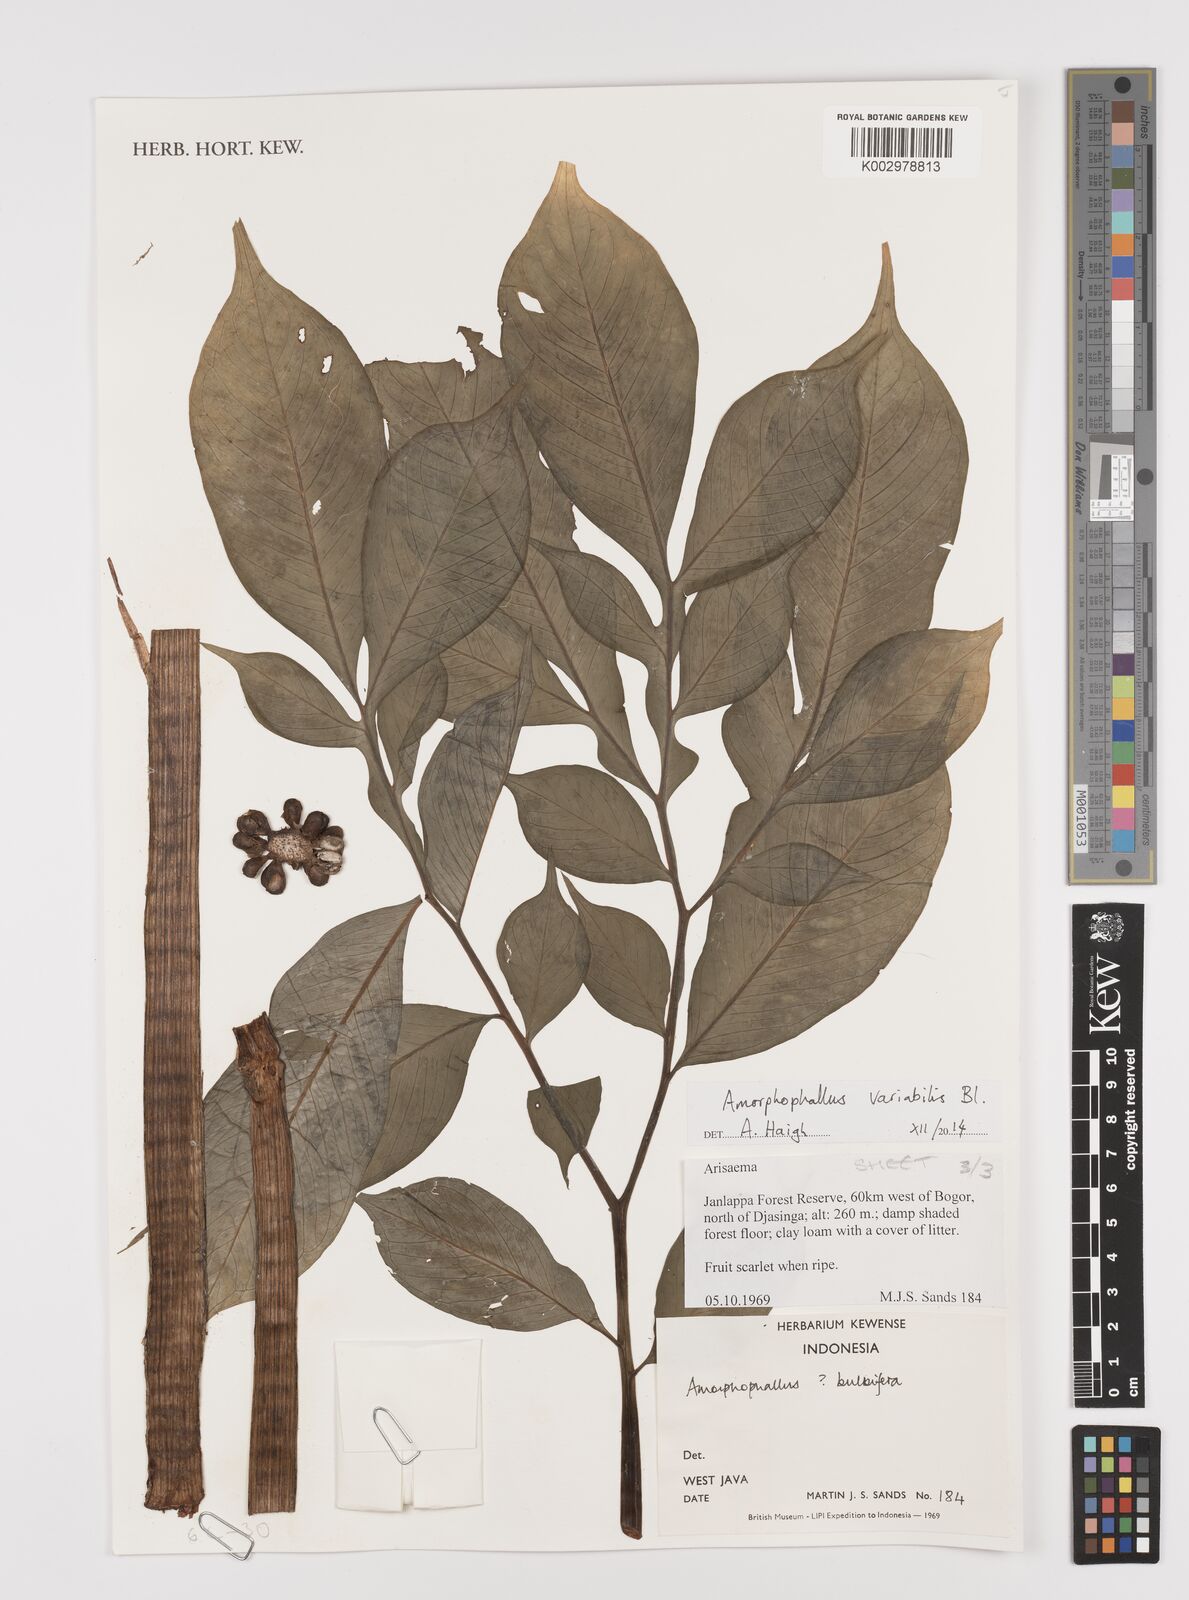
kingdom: Plantae
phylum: Tracheophyta
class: Liliopsida
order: Alismatales
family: Araceae
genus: Amorphophallus
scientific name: Amorphophallus variabilis
